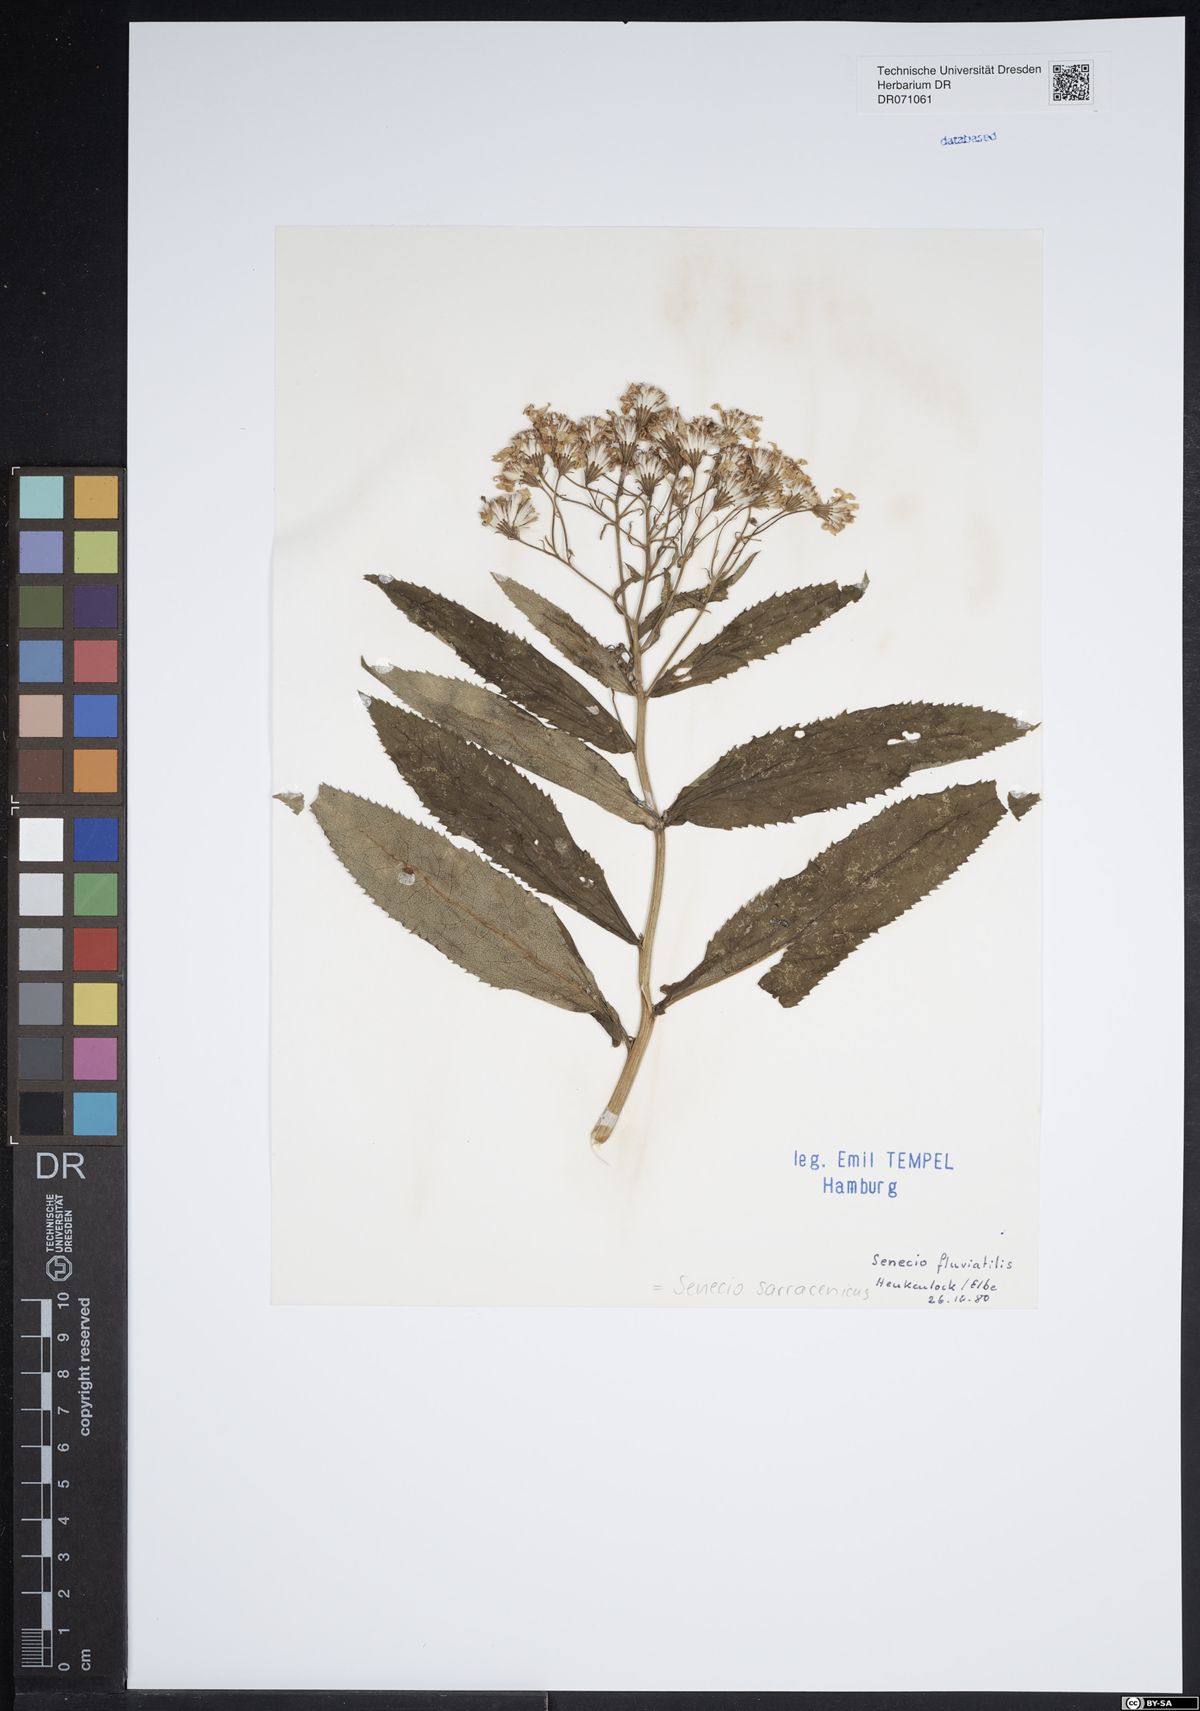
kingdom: Plantae
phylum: Tracheophyta
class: Magnoliopsida
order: Asterales
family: Asteraceae
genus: Senecio
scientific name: Senecio sarracenicus
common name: Broad-leaved ragwort
